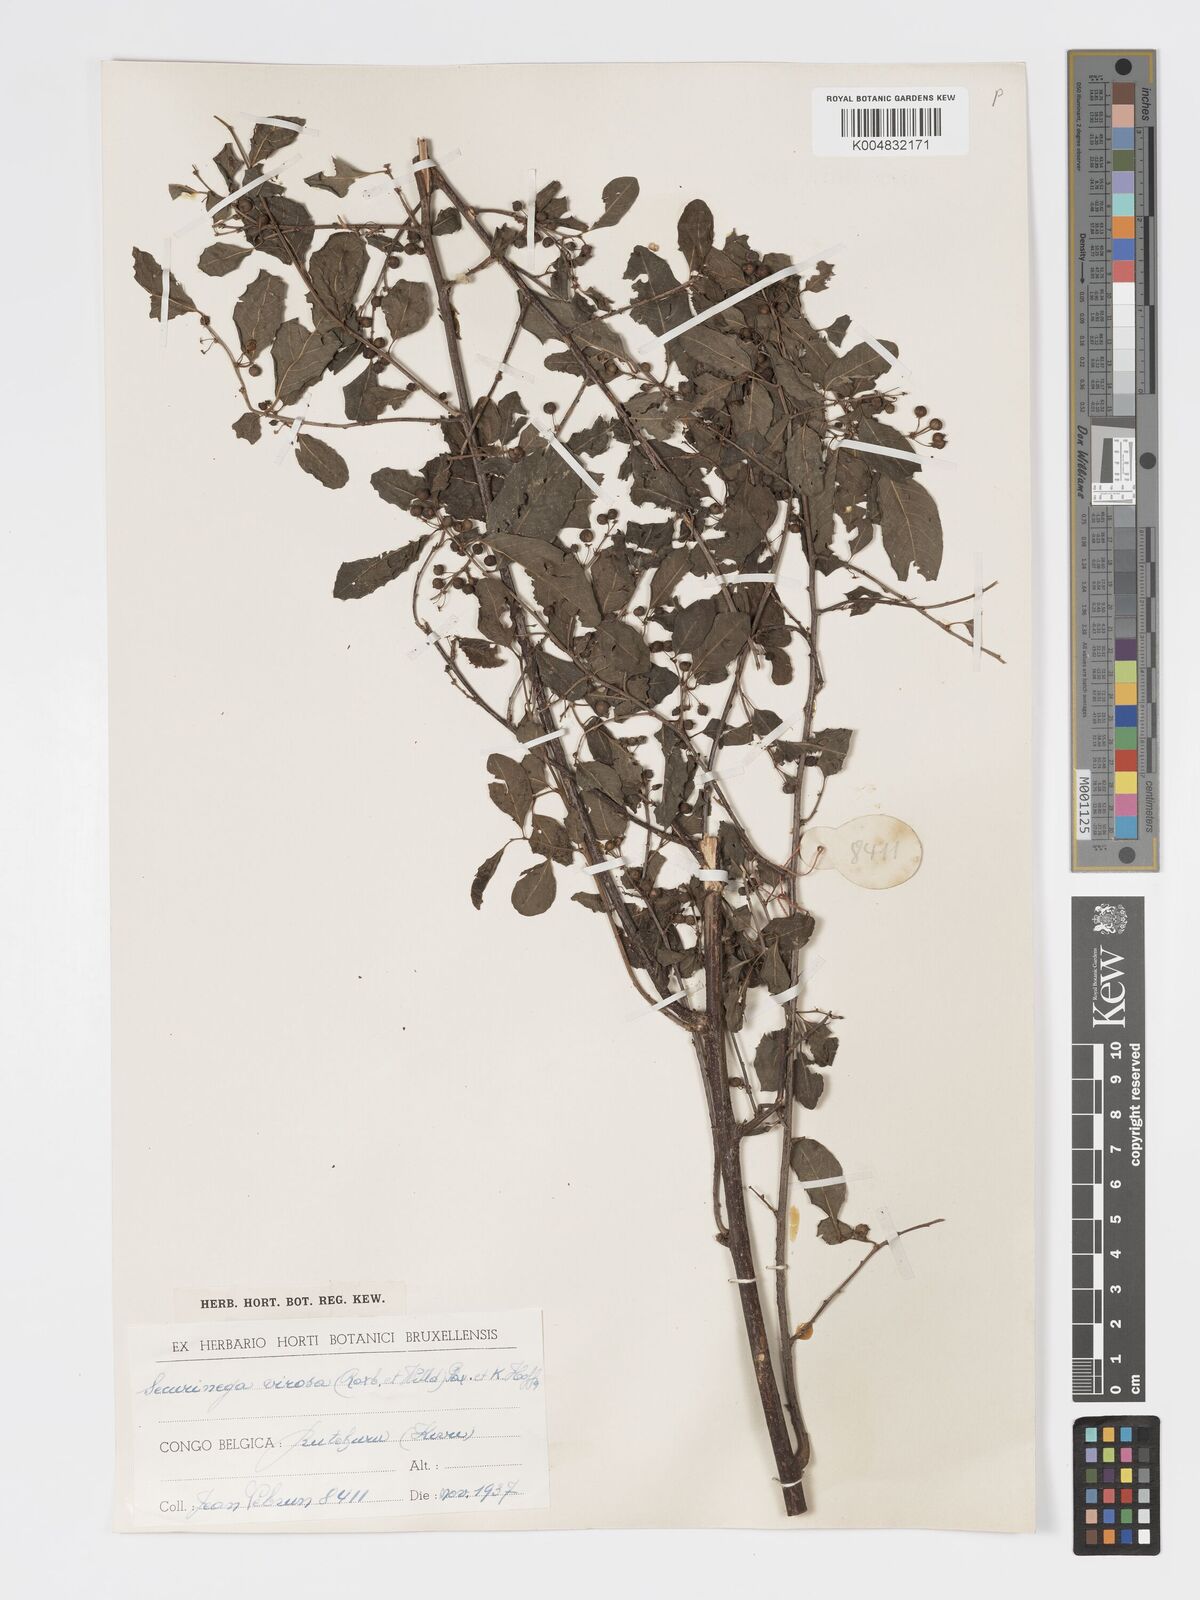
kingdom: Plantae
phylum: Tracheophyta
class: Magnoliopsida
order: Malpighiales
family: Phyllanthaceae
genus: Flueggea
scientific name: Flueggea virosa
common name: Common bushweed
